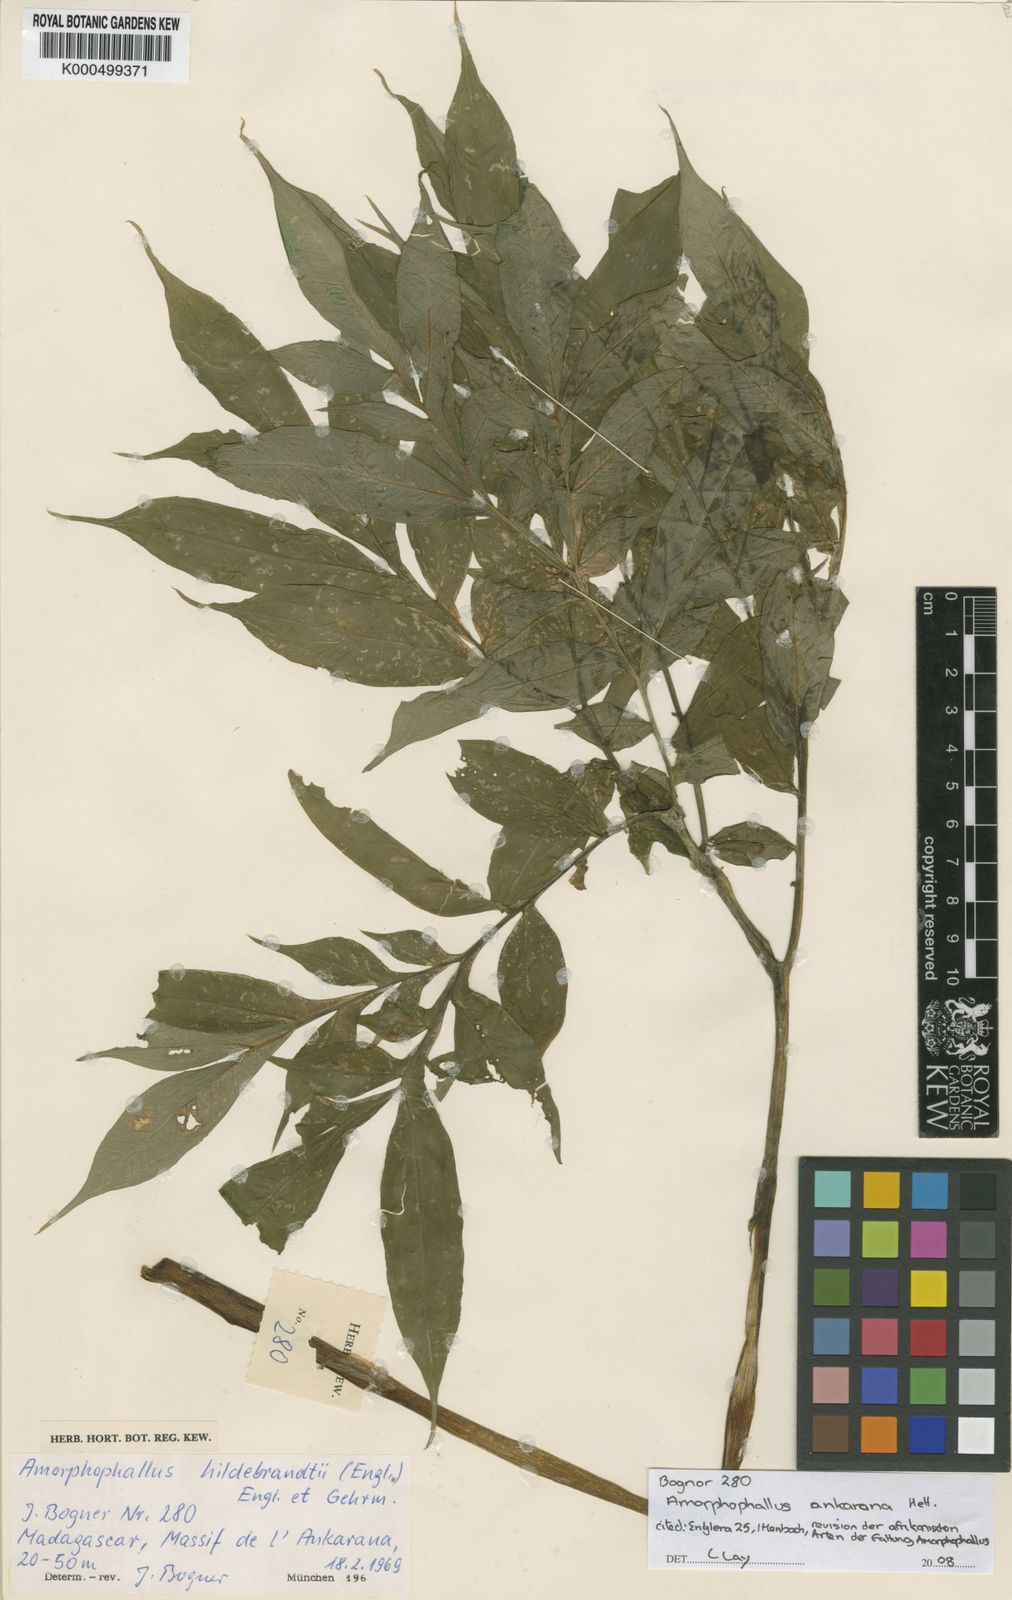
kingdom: Plantae
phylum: Tracheophyta
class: Liliopsida
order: Alismatales
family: Araceae
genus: Amorphophallus
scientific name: Amorphophallus ankarana
